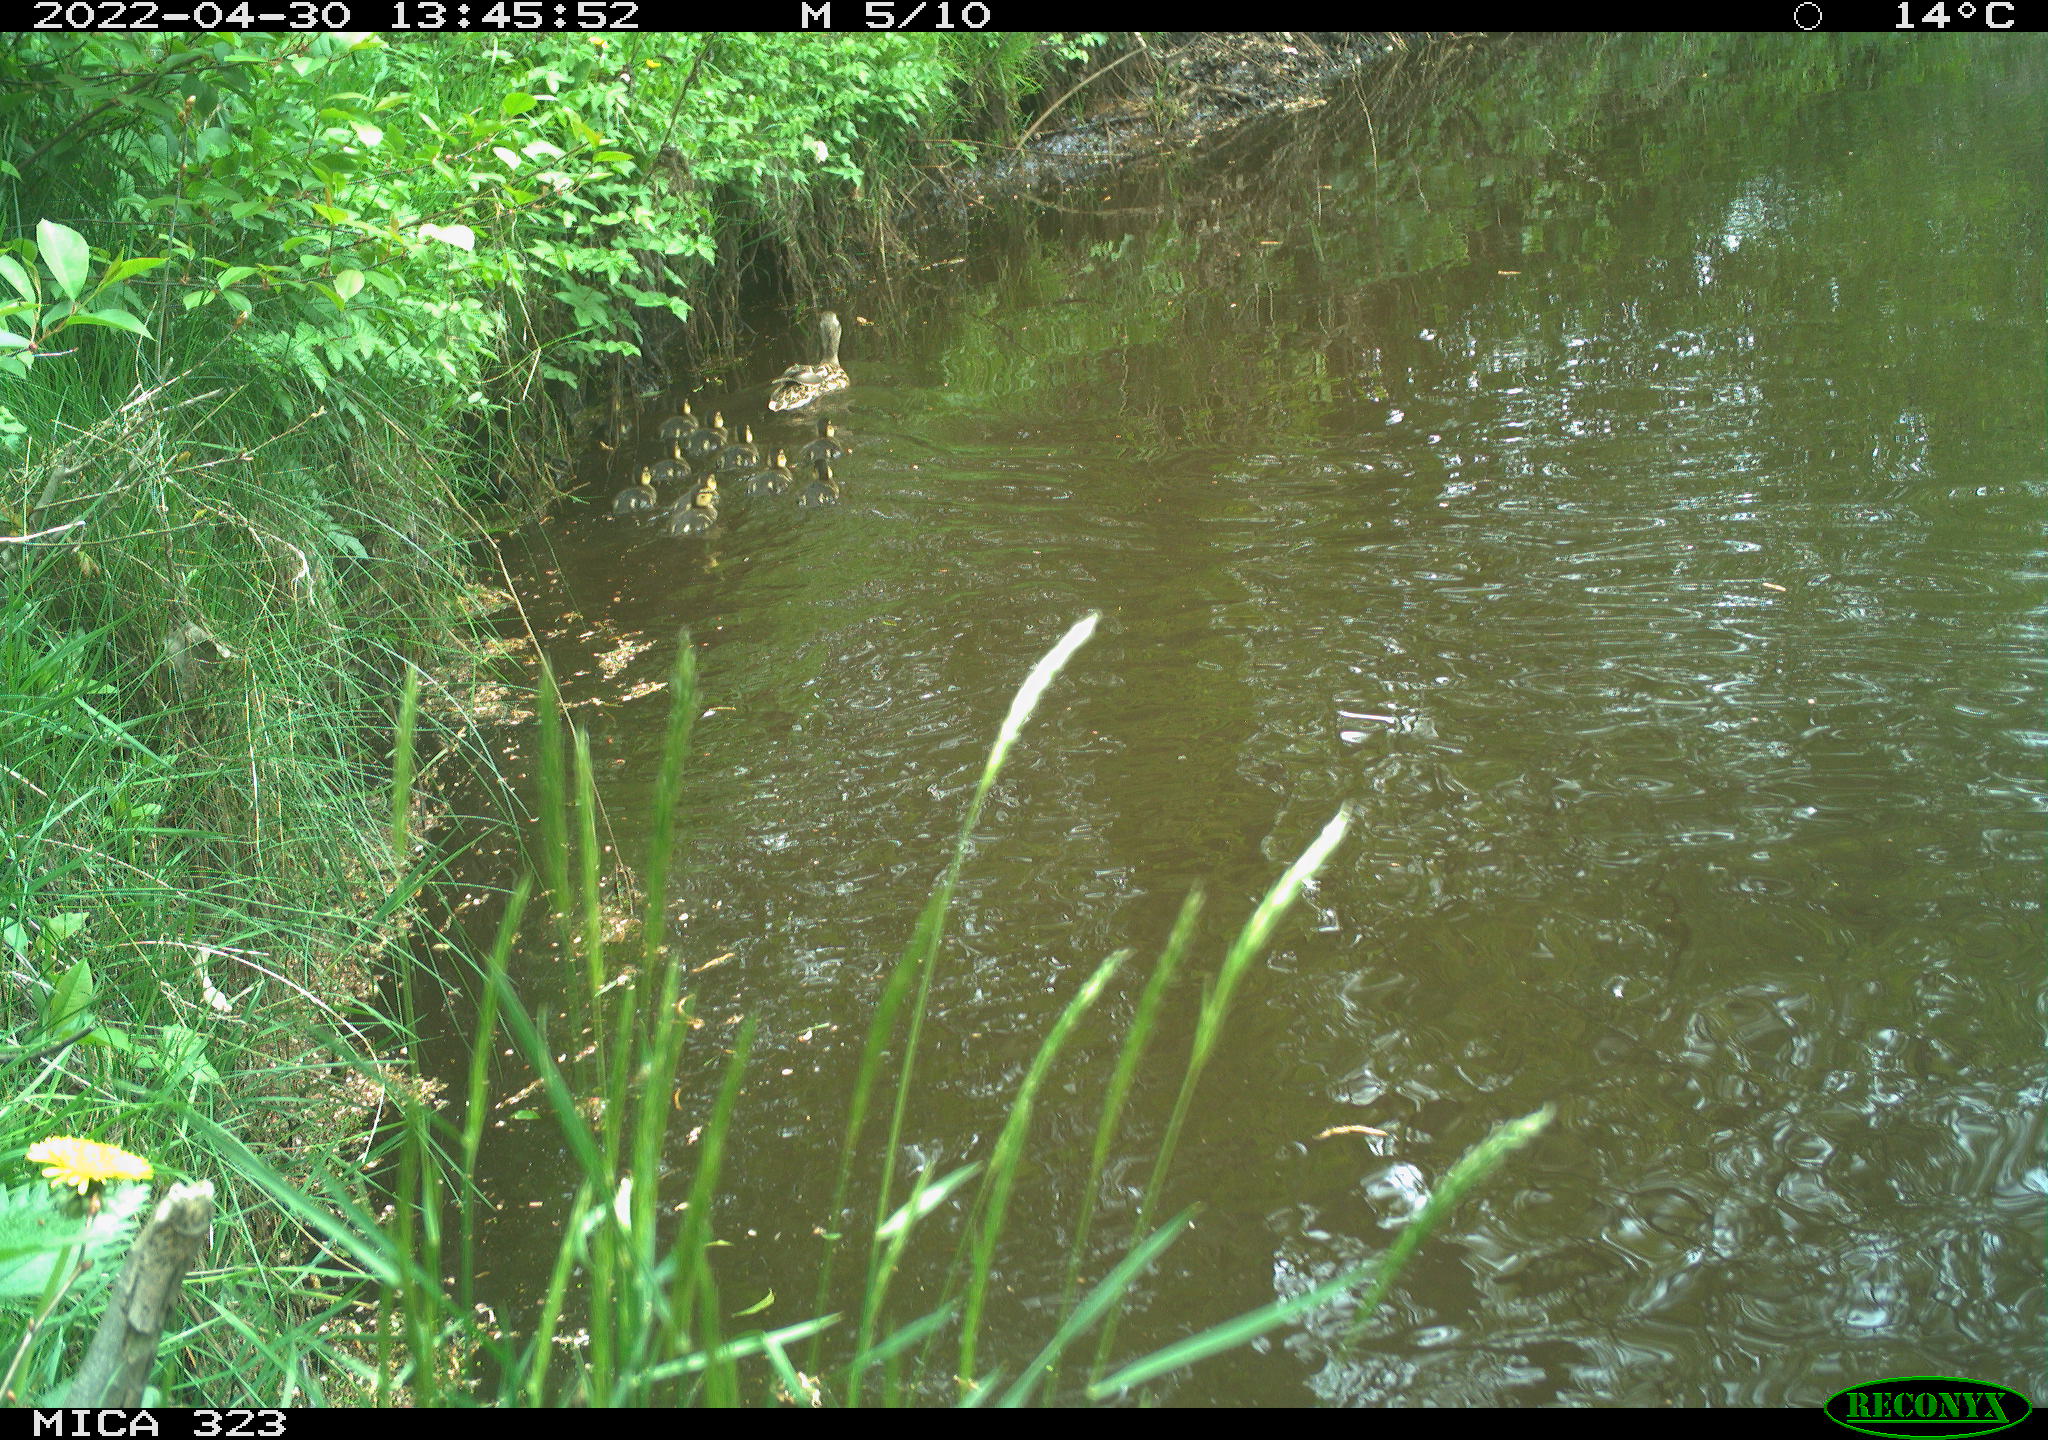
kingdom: Animalia
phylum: Chordata
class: Aves
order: Anseriformes
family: Anatidae
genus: Anas
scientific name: Anas platyrhynchos
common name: Mallard
